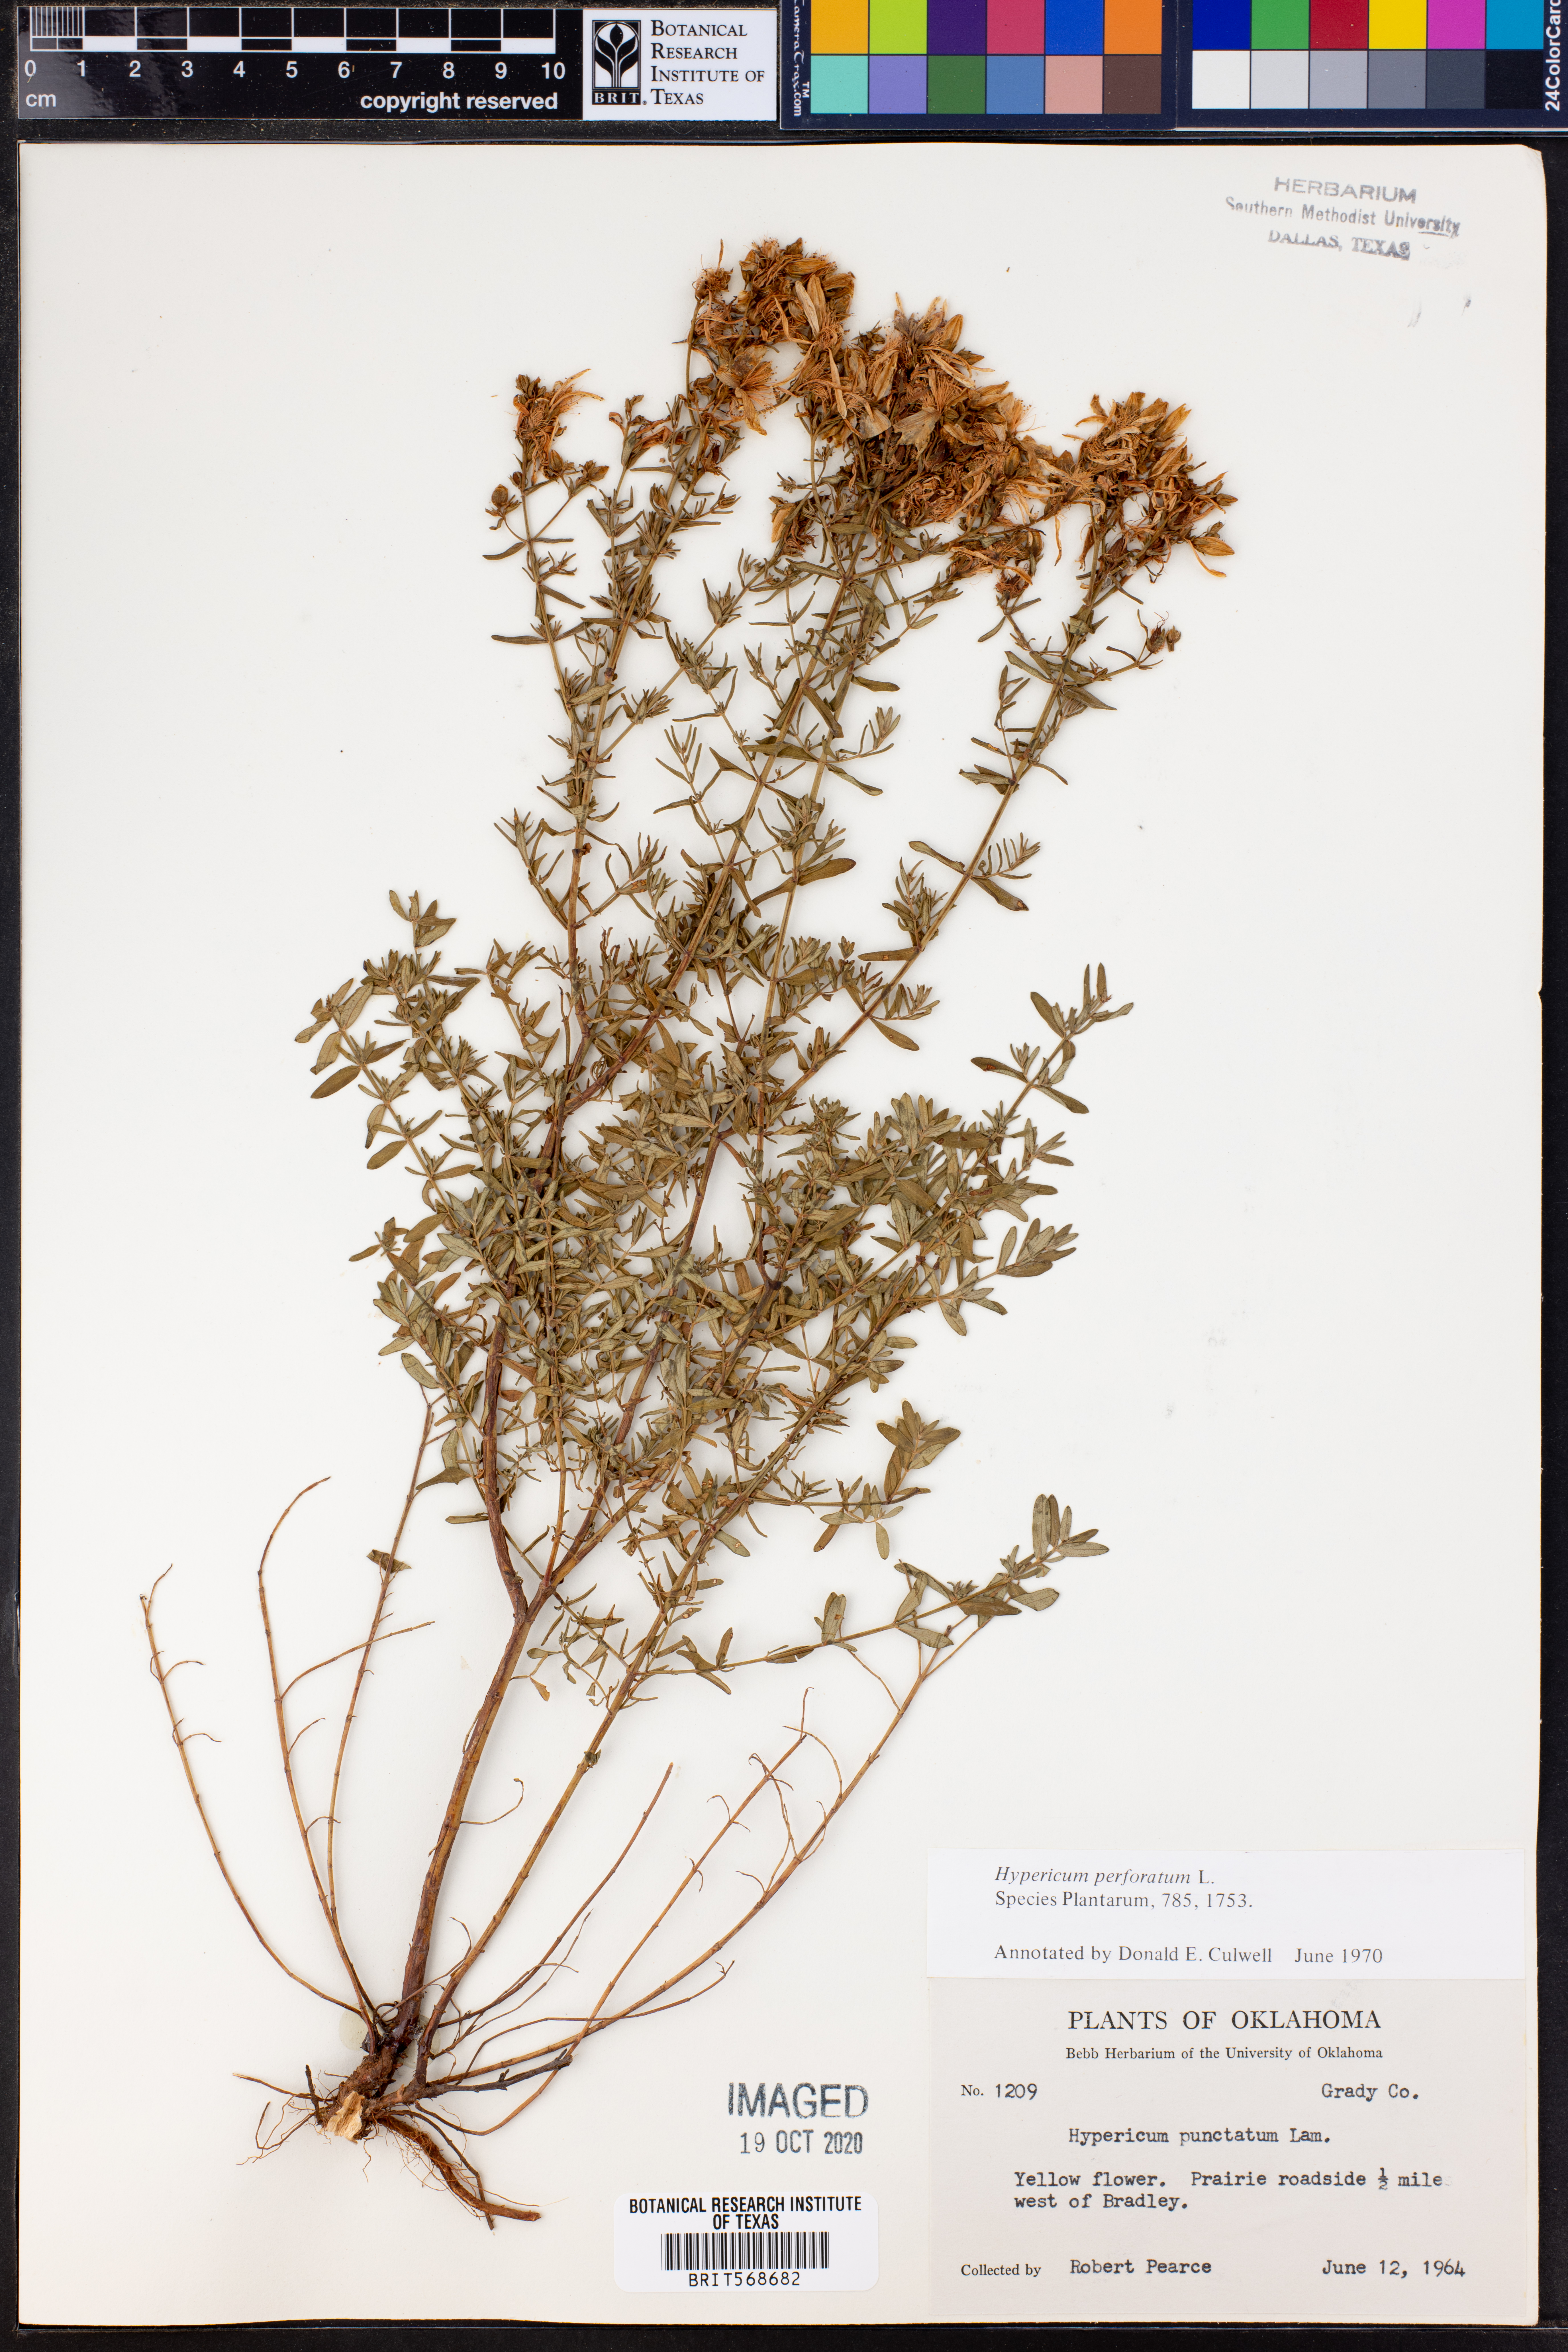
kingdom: Plantae
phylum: Tracheophyta
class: Magnoliopsida
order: Malpighiales
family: Hypericaceae
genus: Hypericum
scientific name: Hypericum perforatum
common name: Common st. johnswort
